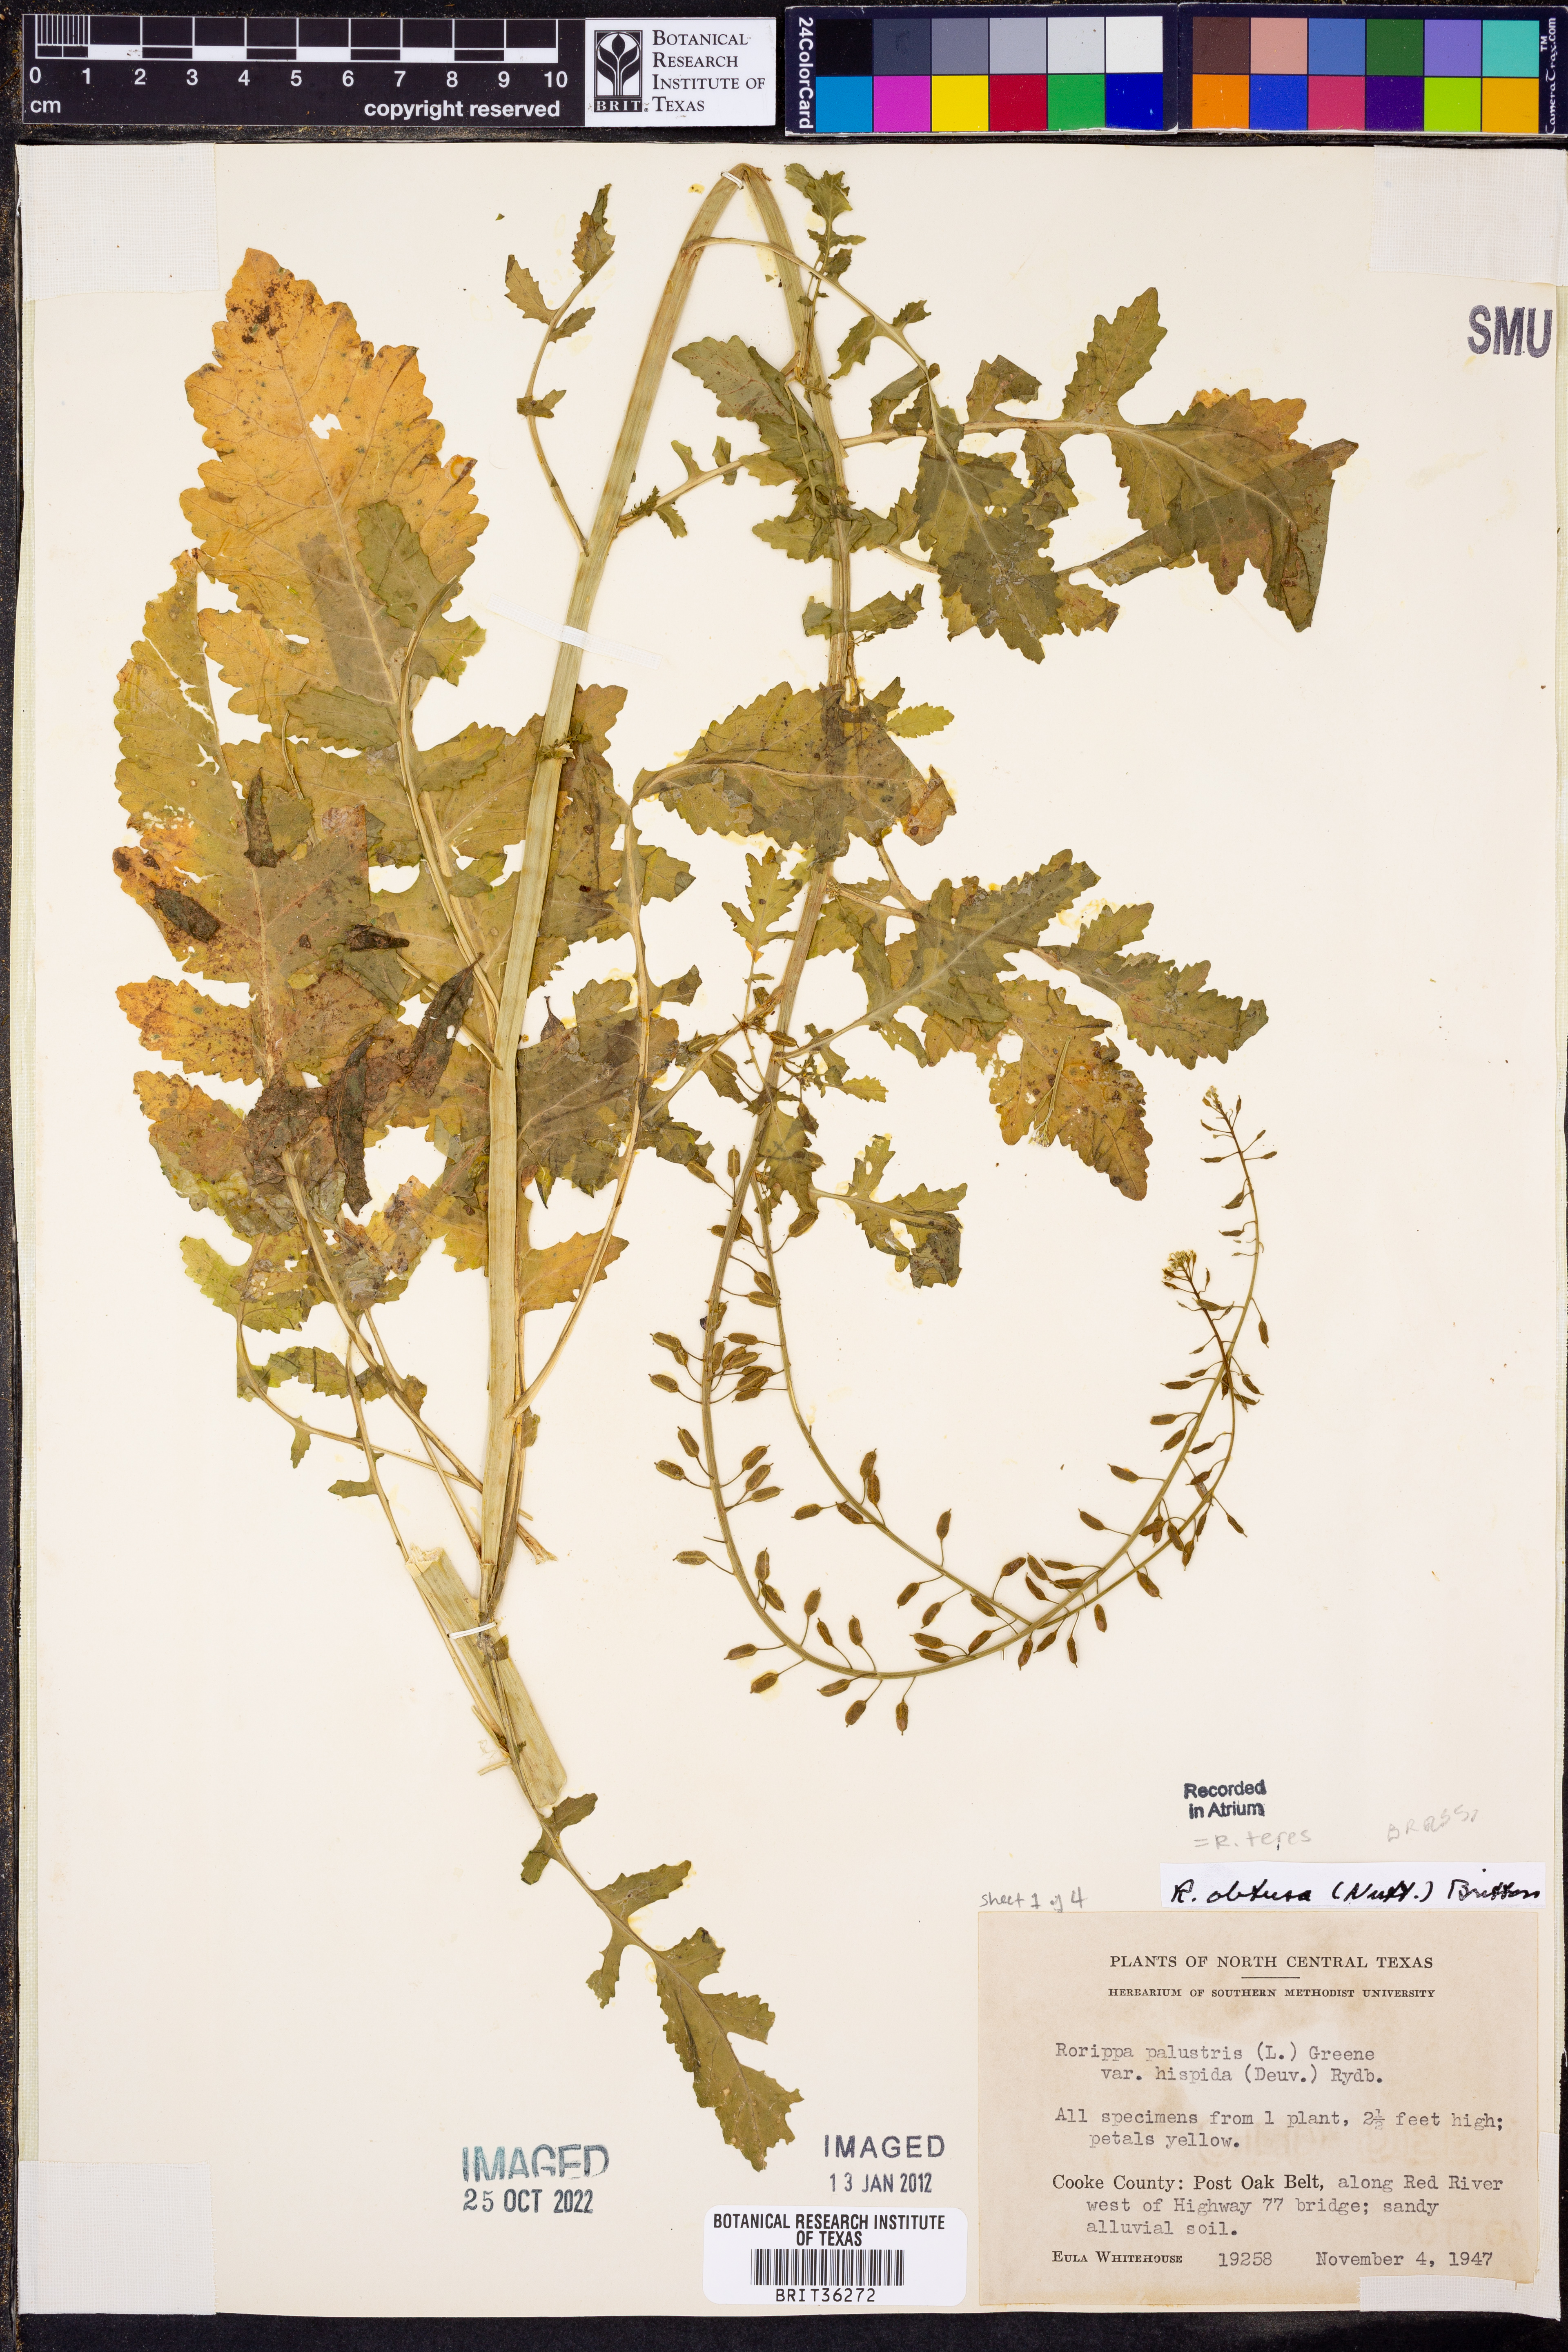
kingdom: Plantae
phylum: Tracheophyta
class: Magnoliopsida
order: Brassicales
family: Brassicaceae
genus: Rorippa
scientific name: Rorippa teres
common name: Southern marsh yellowcress
